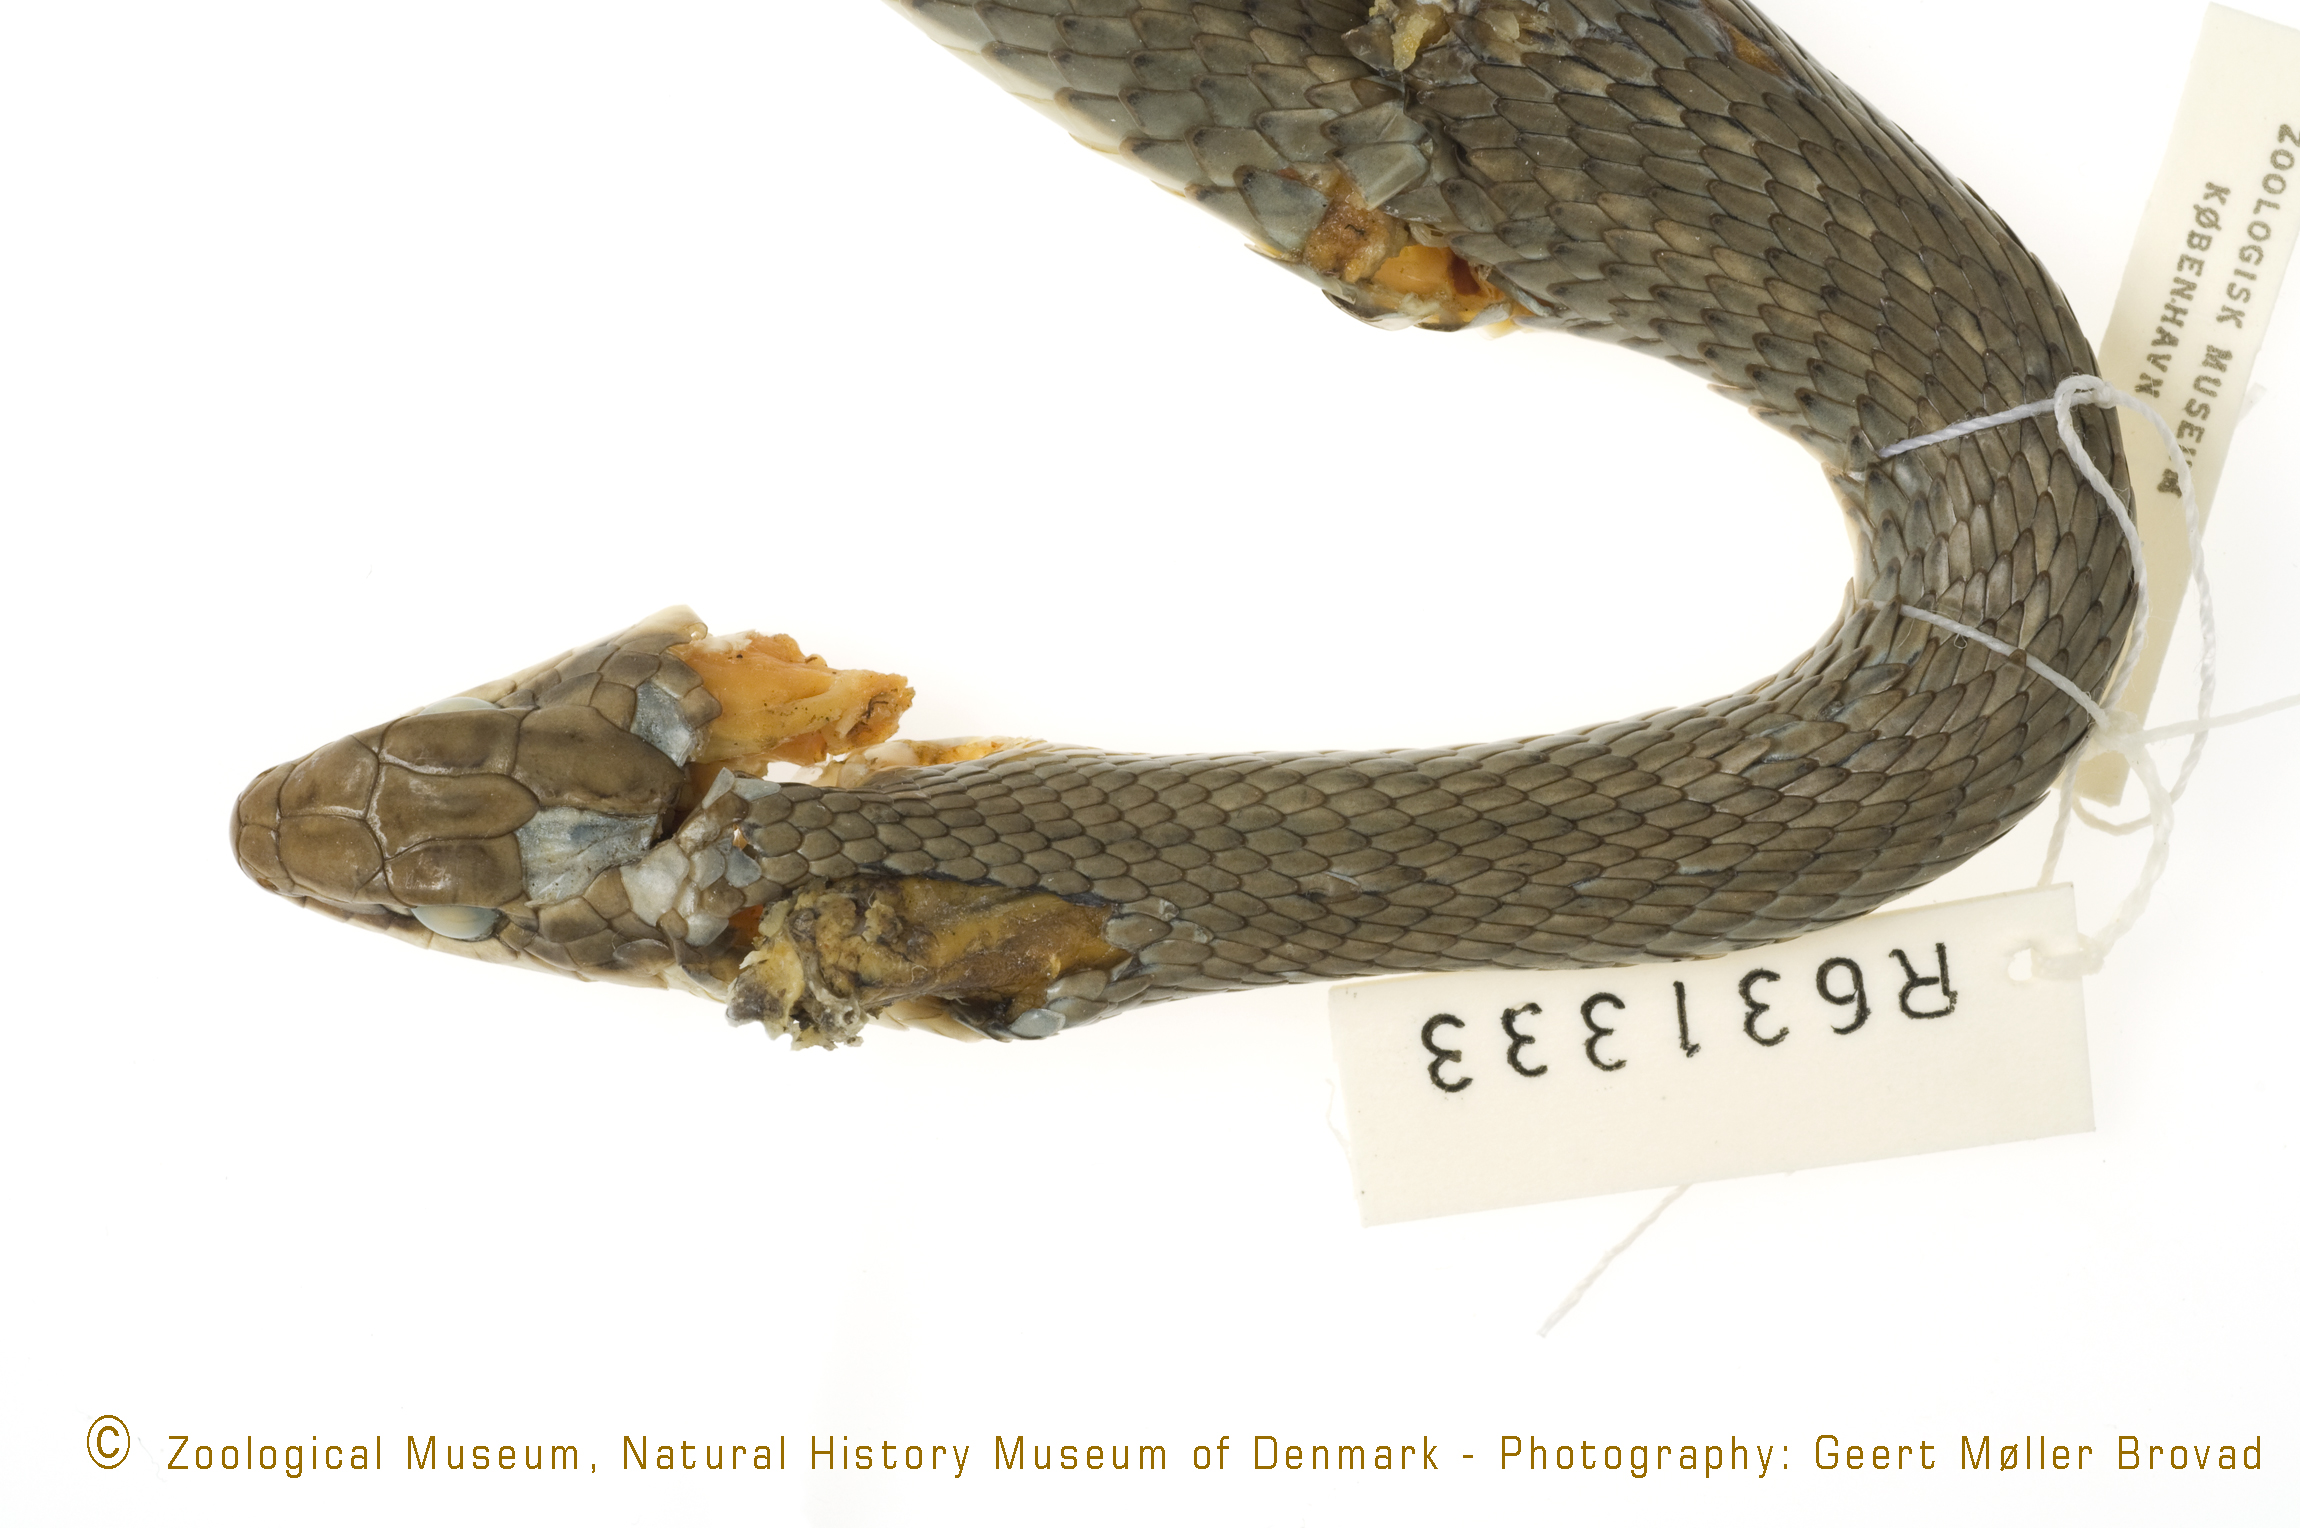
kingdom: Animalia
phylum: Chordata
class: Squamata
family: Colubridae
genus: Psammophis
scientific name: Psammophis
